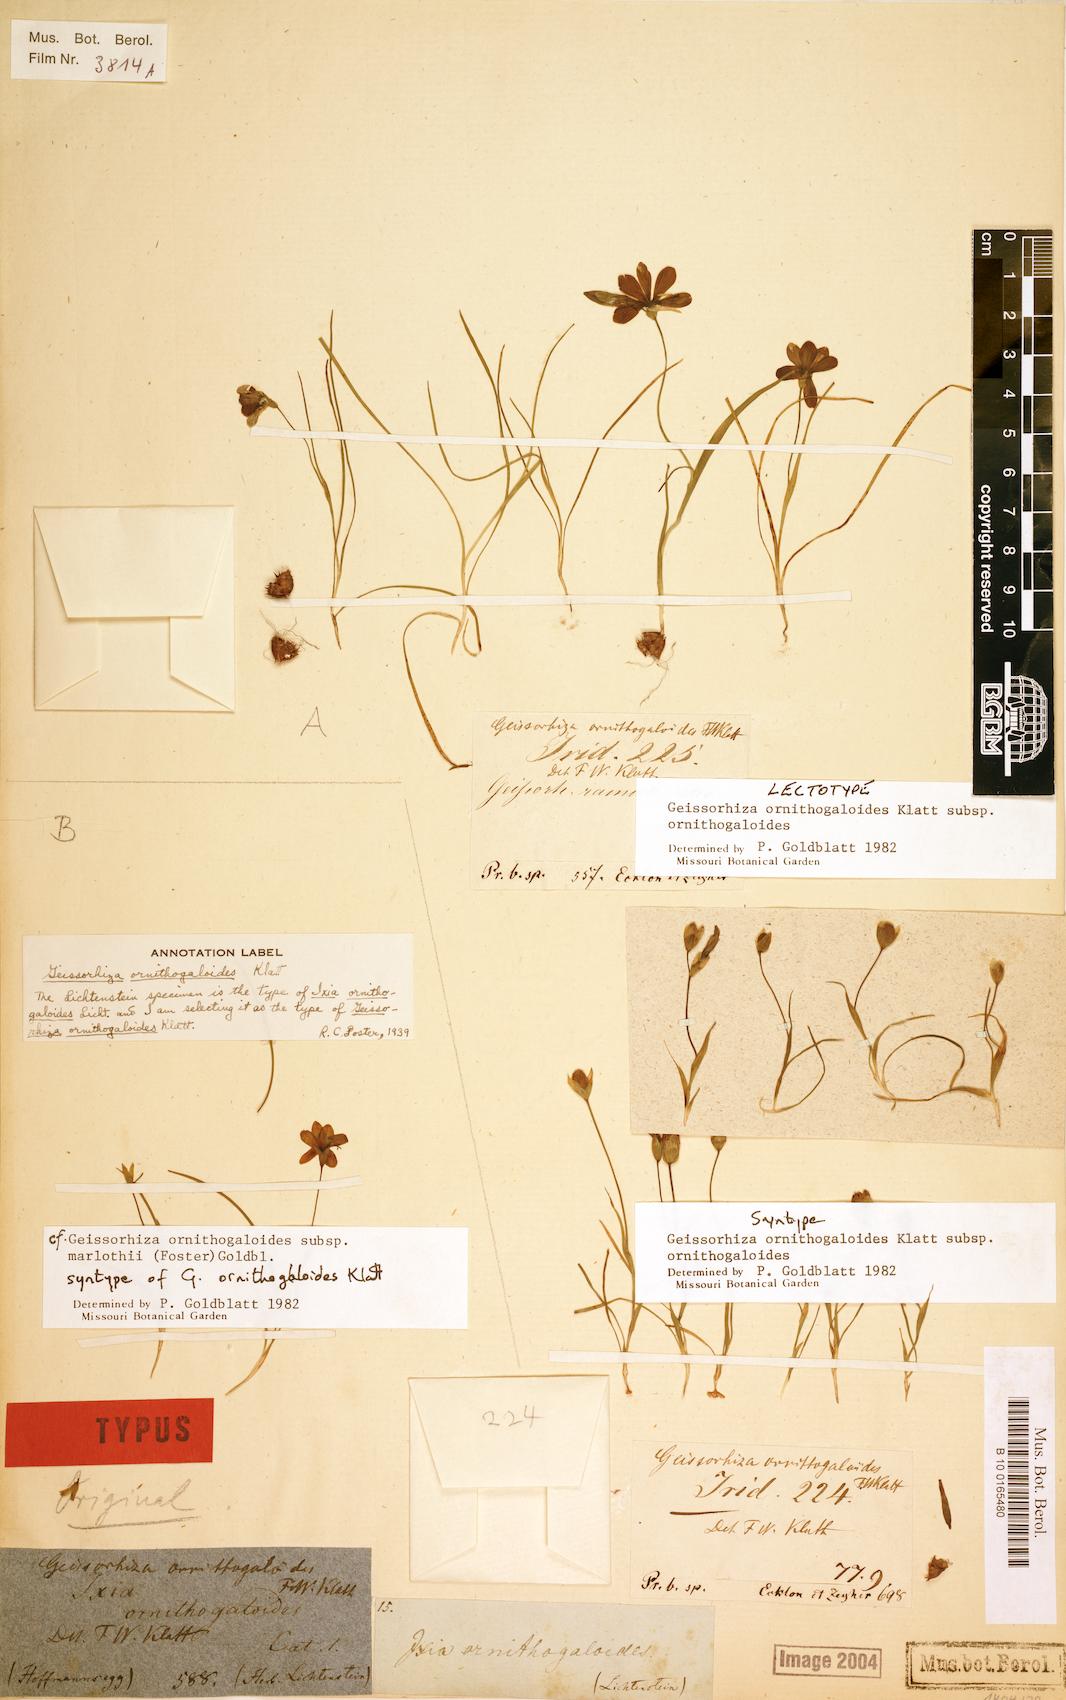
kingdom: Plantae
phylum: Tracheophyta
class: Liliopsida
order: Asparagales
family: Iridaceae
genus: Geissorhiza
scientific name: Geissorhiza ornithogaloides
